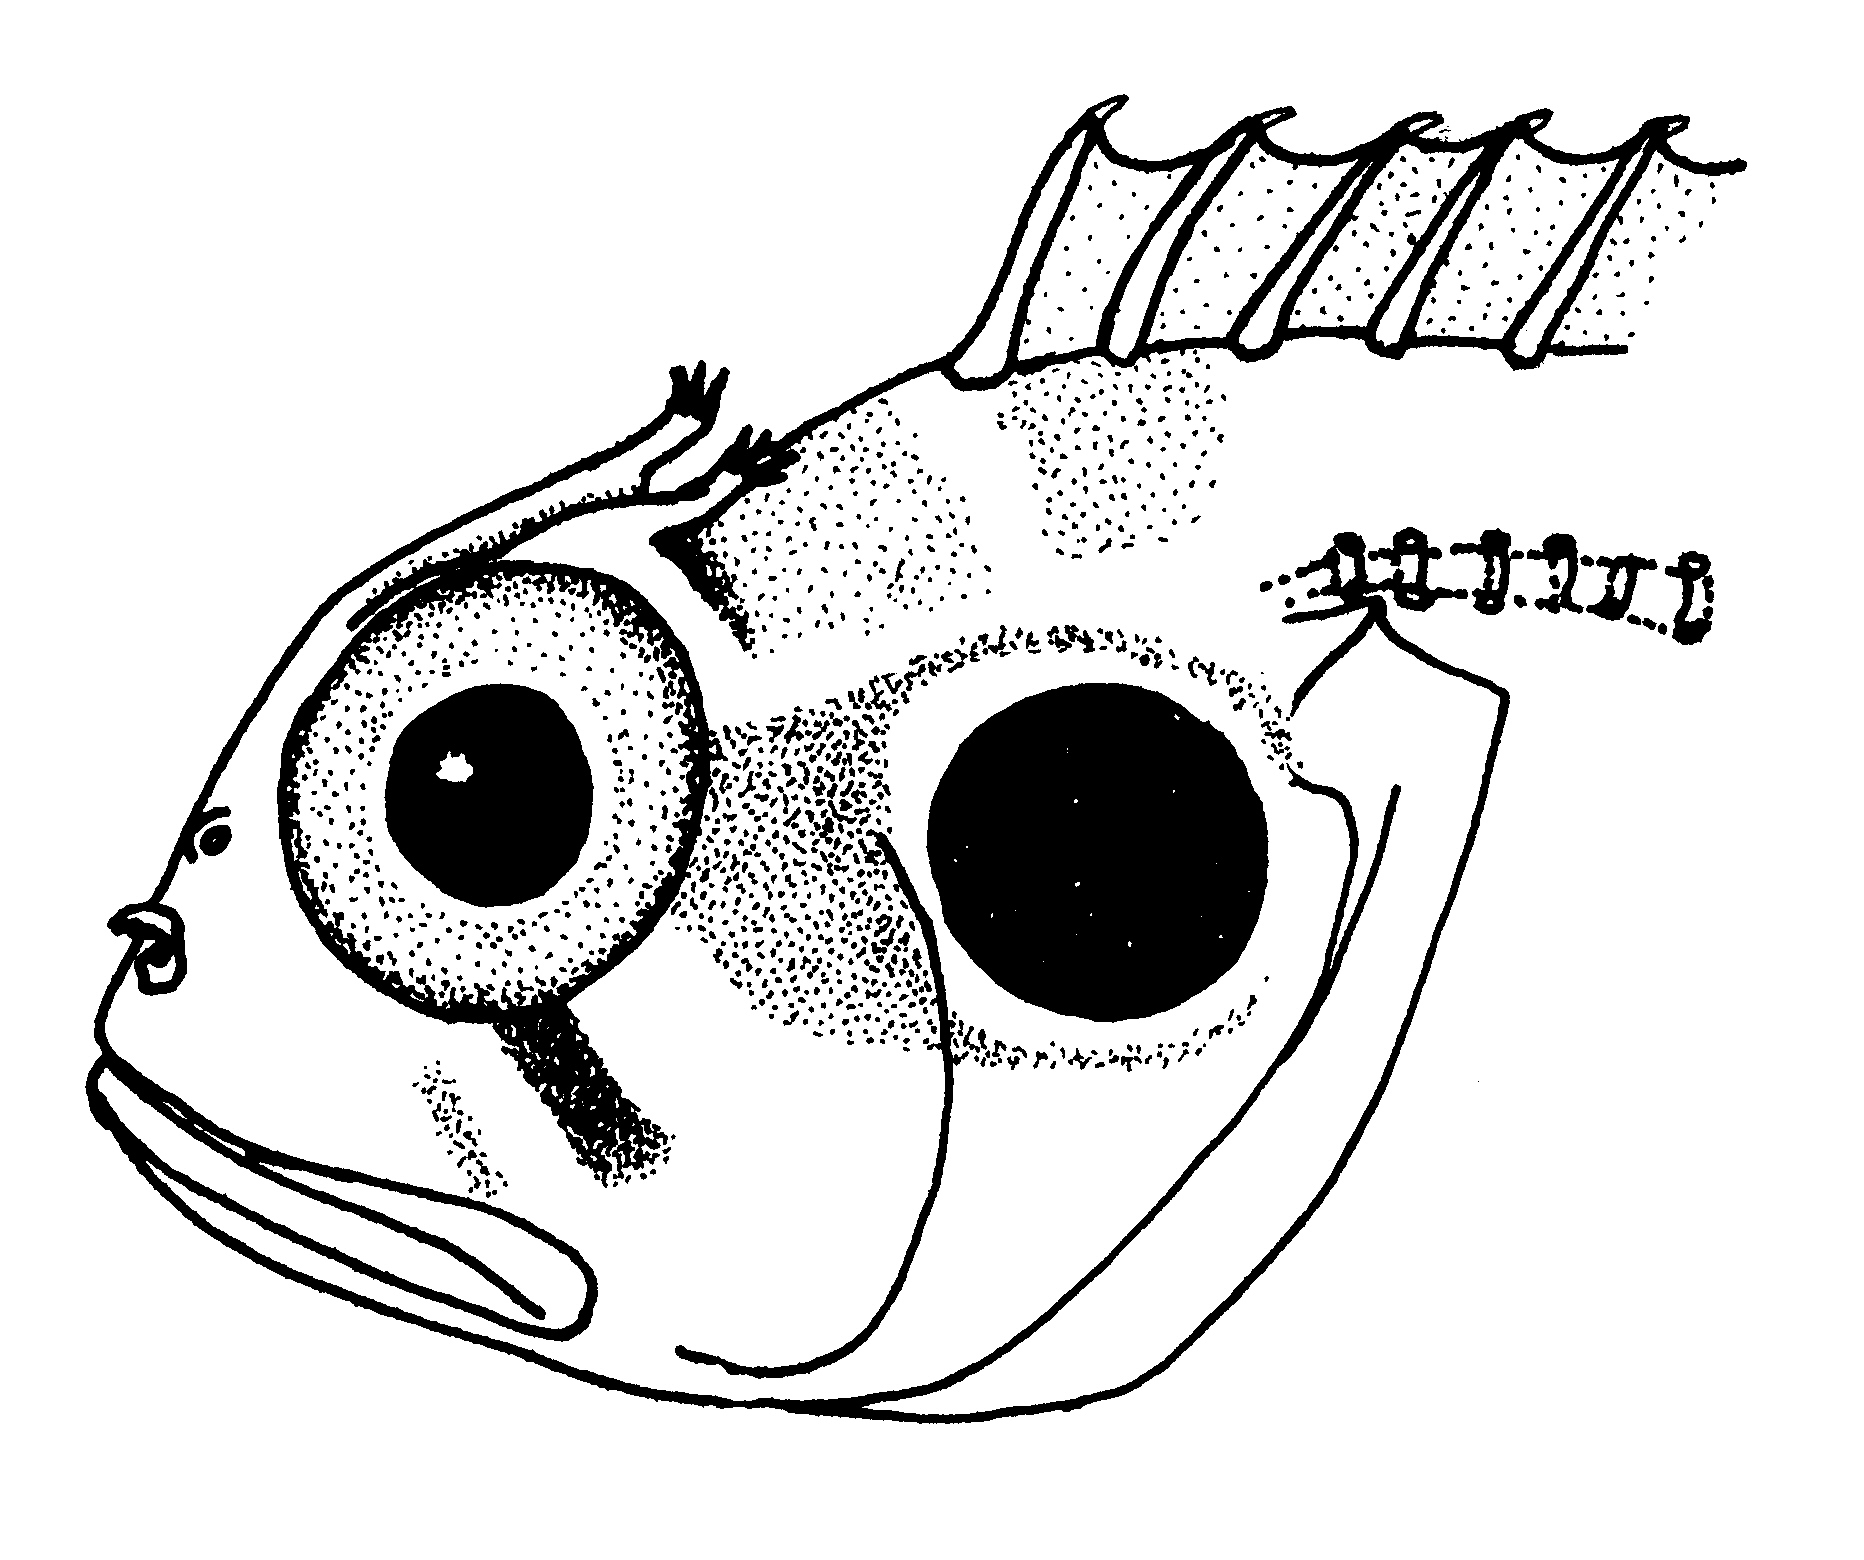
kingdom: Animalia
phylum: Chordata
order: Perciformes
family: Clinidae
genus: Clinus
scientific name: Clinus cottoides
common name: Bluntnose klipfish
